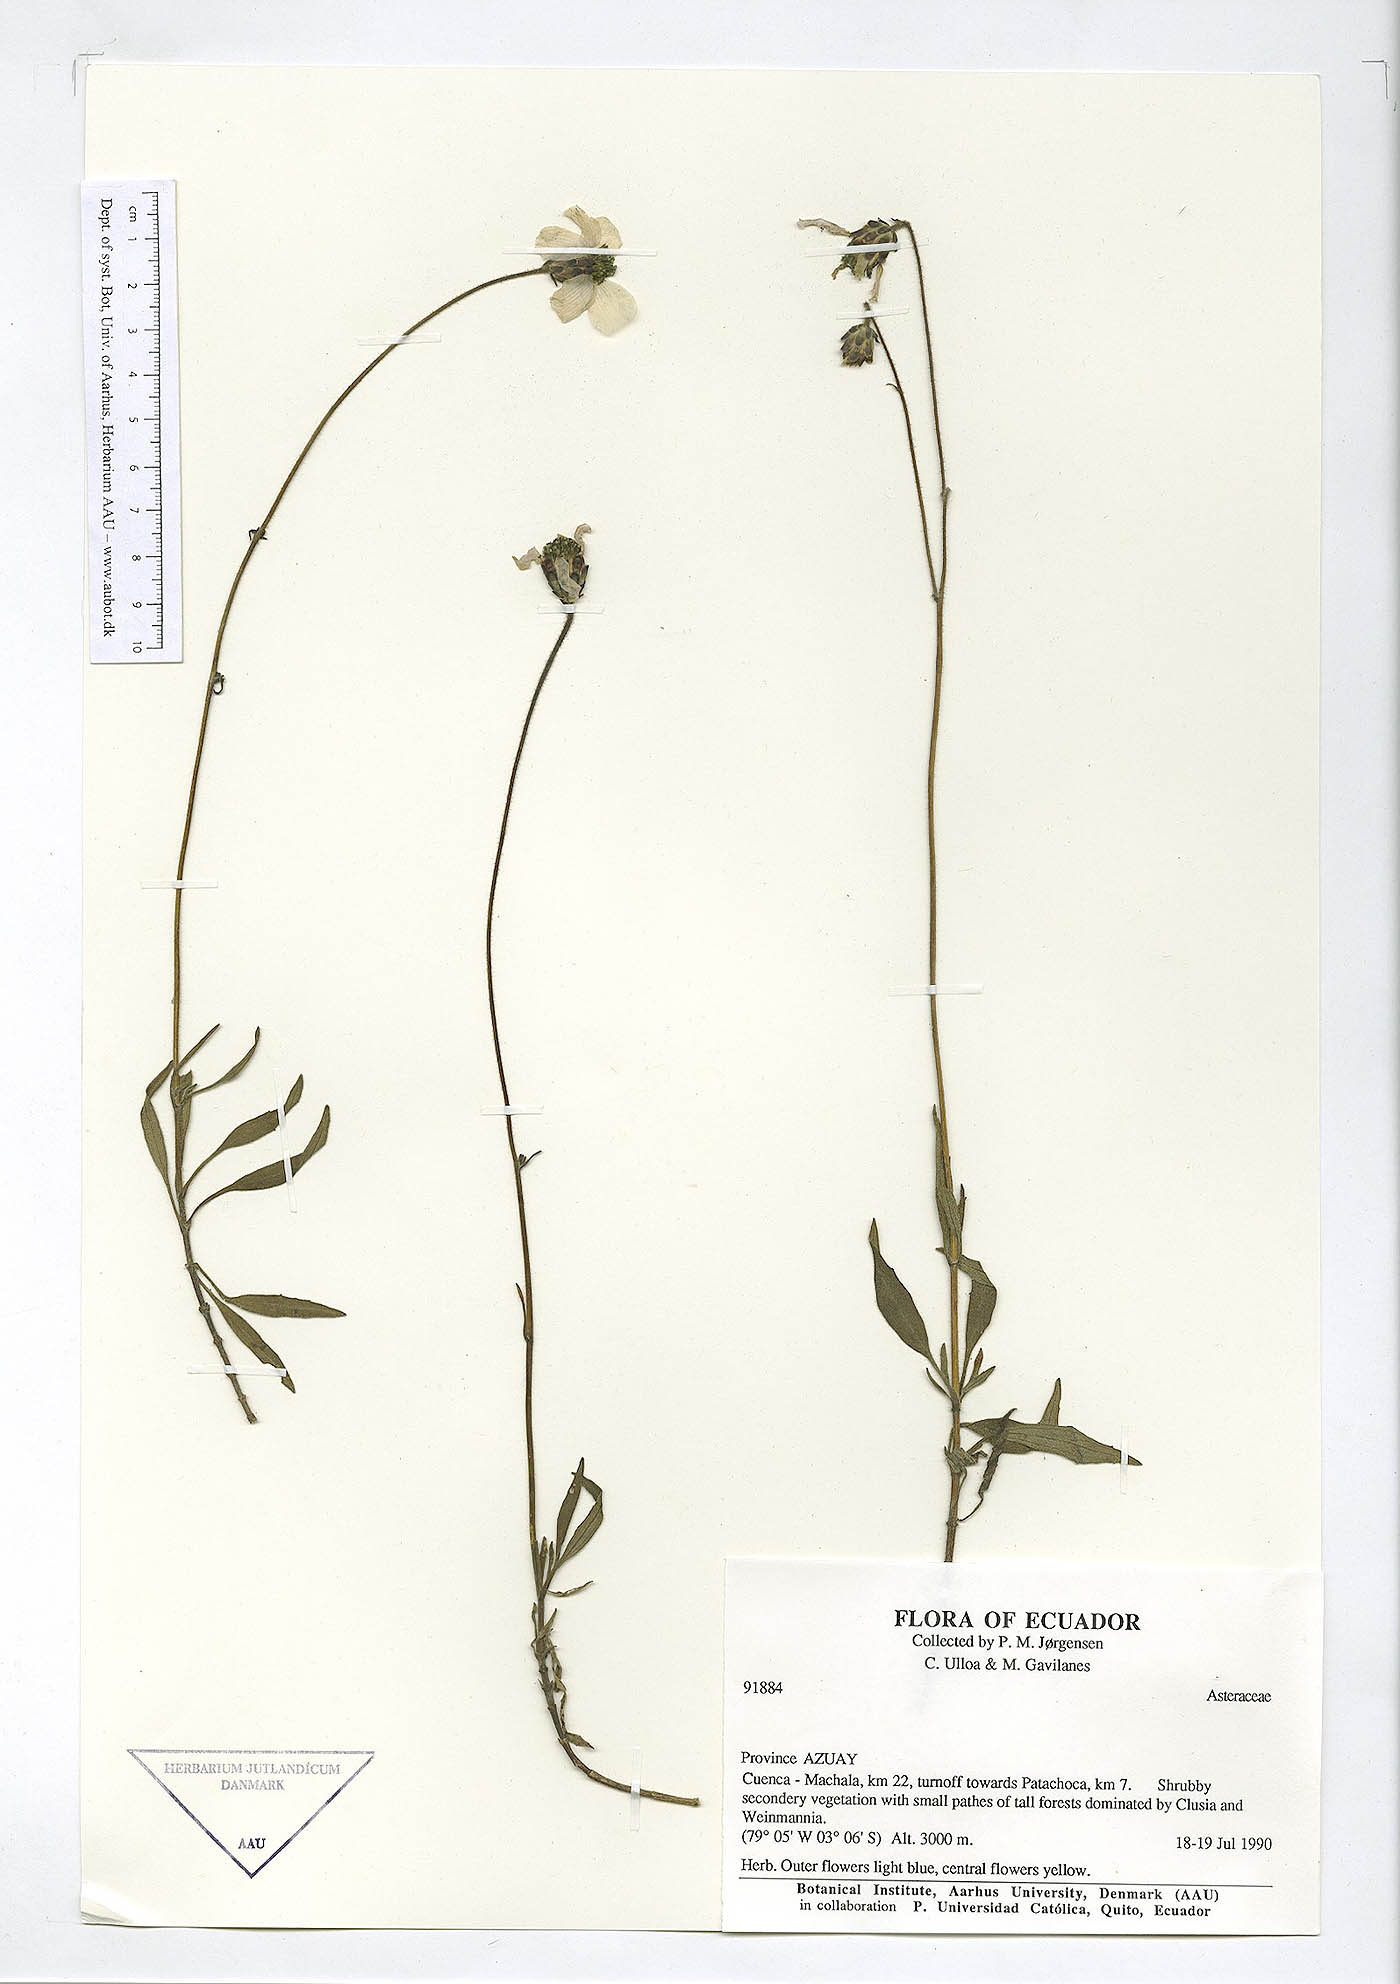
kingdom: Plantae
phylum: Tracheophyta
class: Magnoliopsida
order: Asterales
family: Asteraceae
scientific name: Asteraceae
